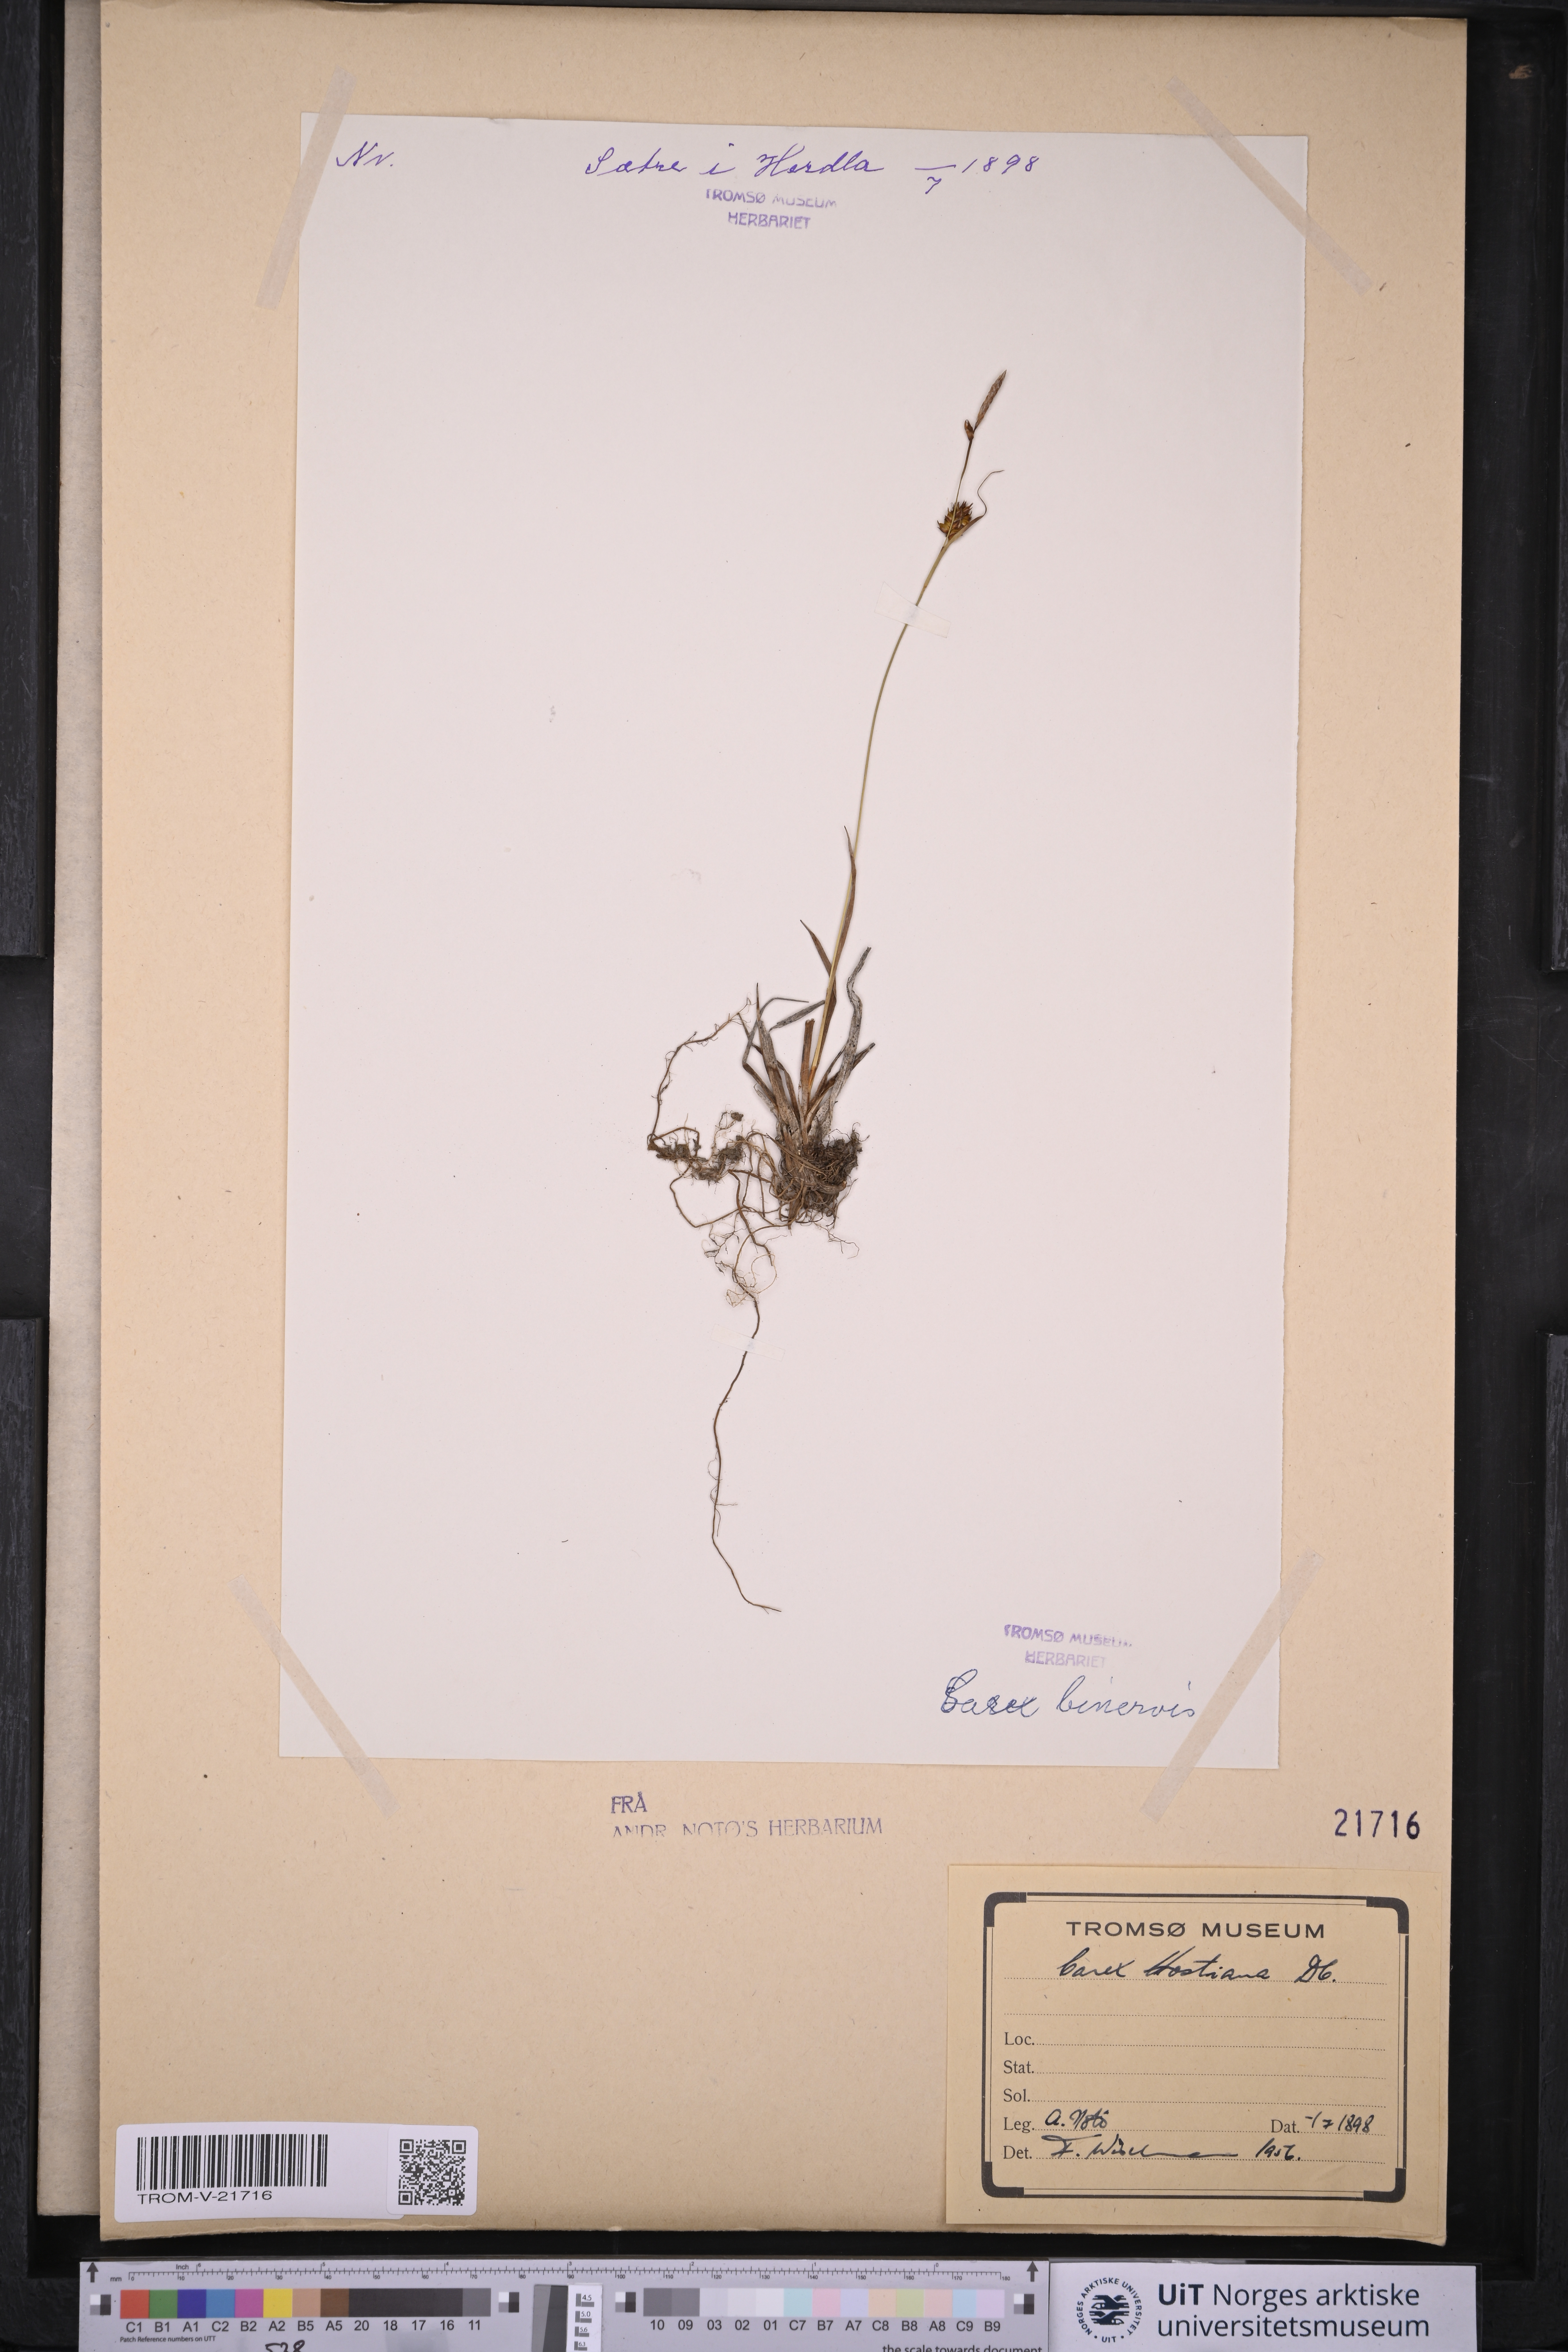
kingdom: Plantae
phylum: Tracheophyta
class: Liliopsida
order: Poales
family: Cyperaceae
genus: Carex
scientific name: Carex hostiana
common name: Tawny sedge
